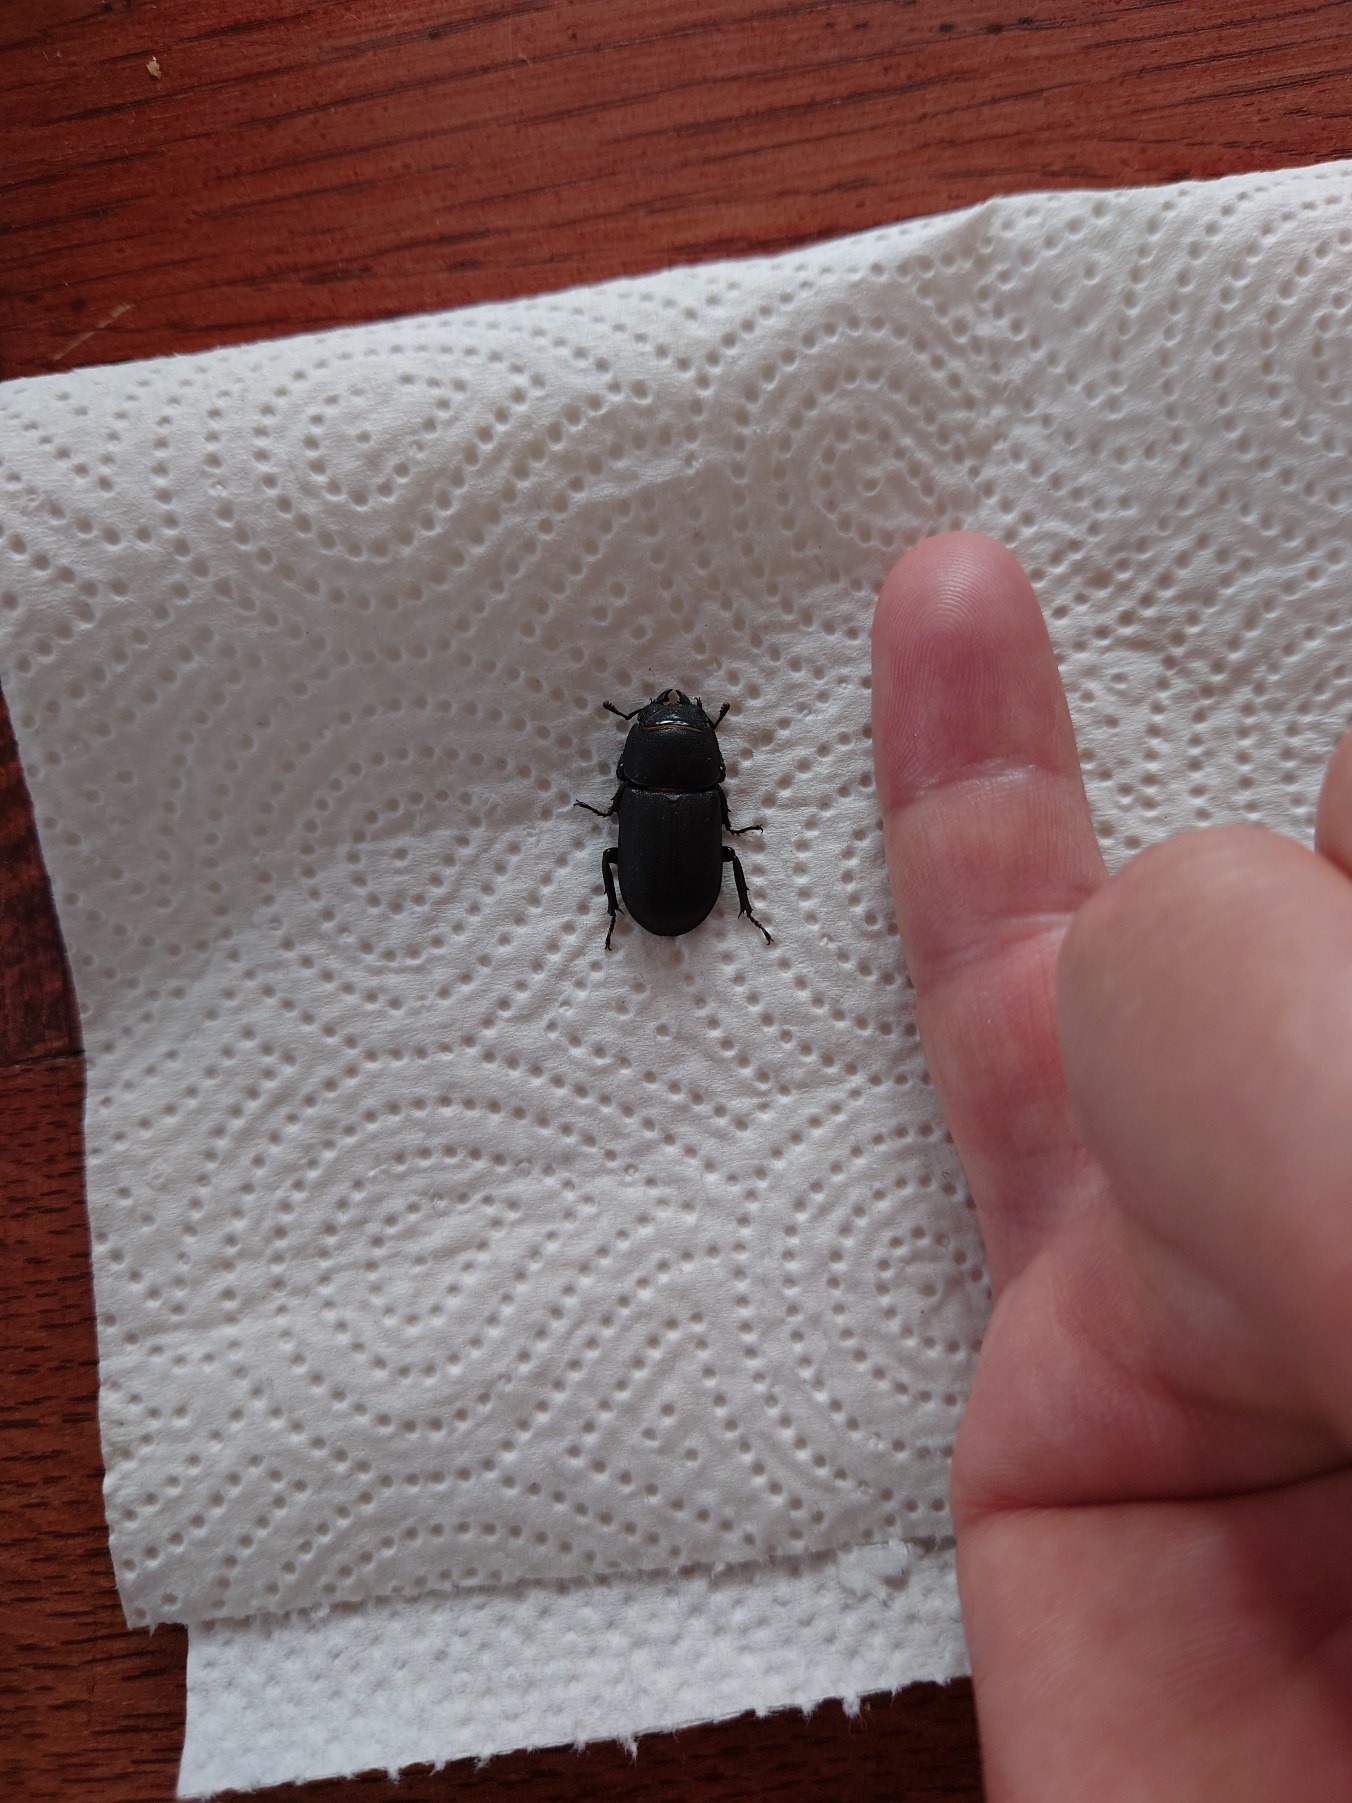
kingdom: Animalia
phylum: Arthropoda
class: Insecta
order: Coleoptera
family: Lucanidae
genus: Dorcus
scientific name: Dorcus parallelipipedus
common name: Bøghjort
